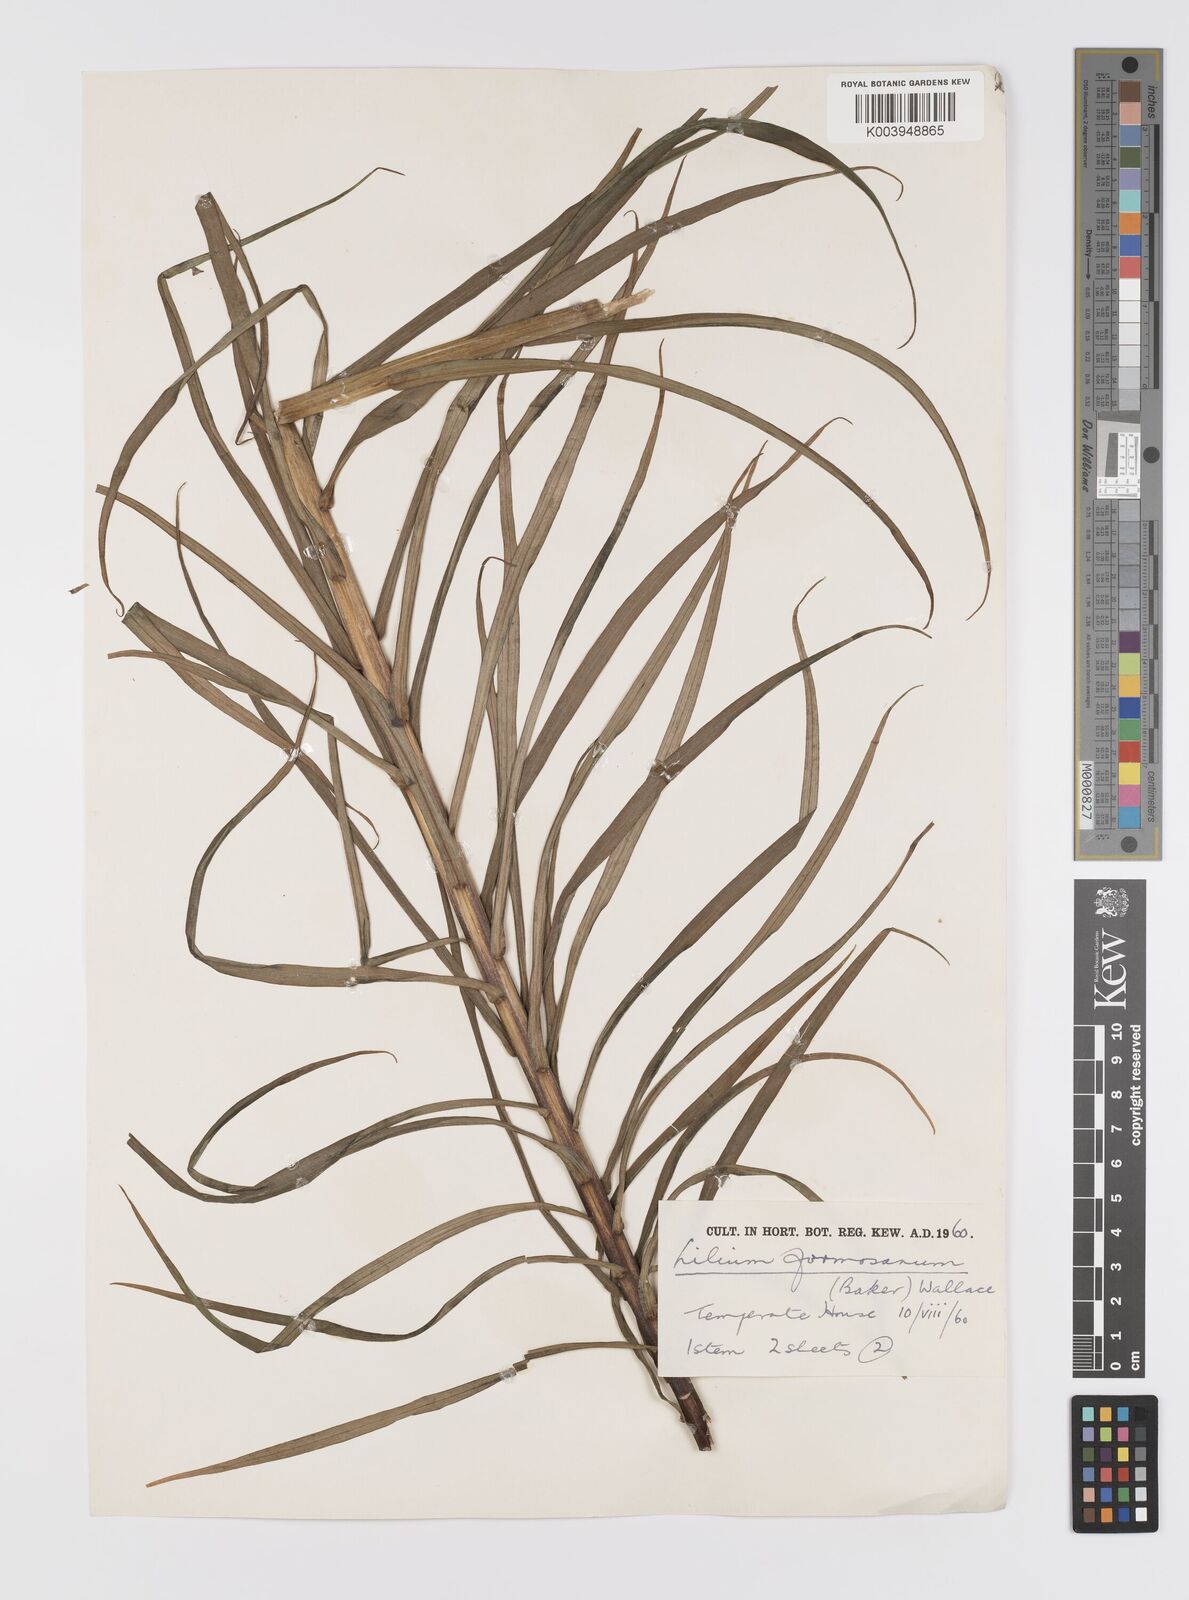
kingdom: Plantae
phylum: Tracheophyta
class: Liliopsida
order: Liliales
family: Liliaceae
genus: Lilium
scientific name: Lilium formosanum
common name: Formosa lily
